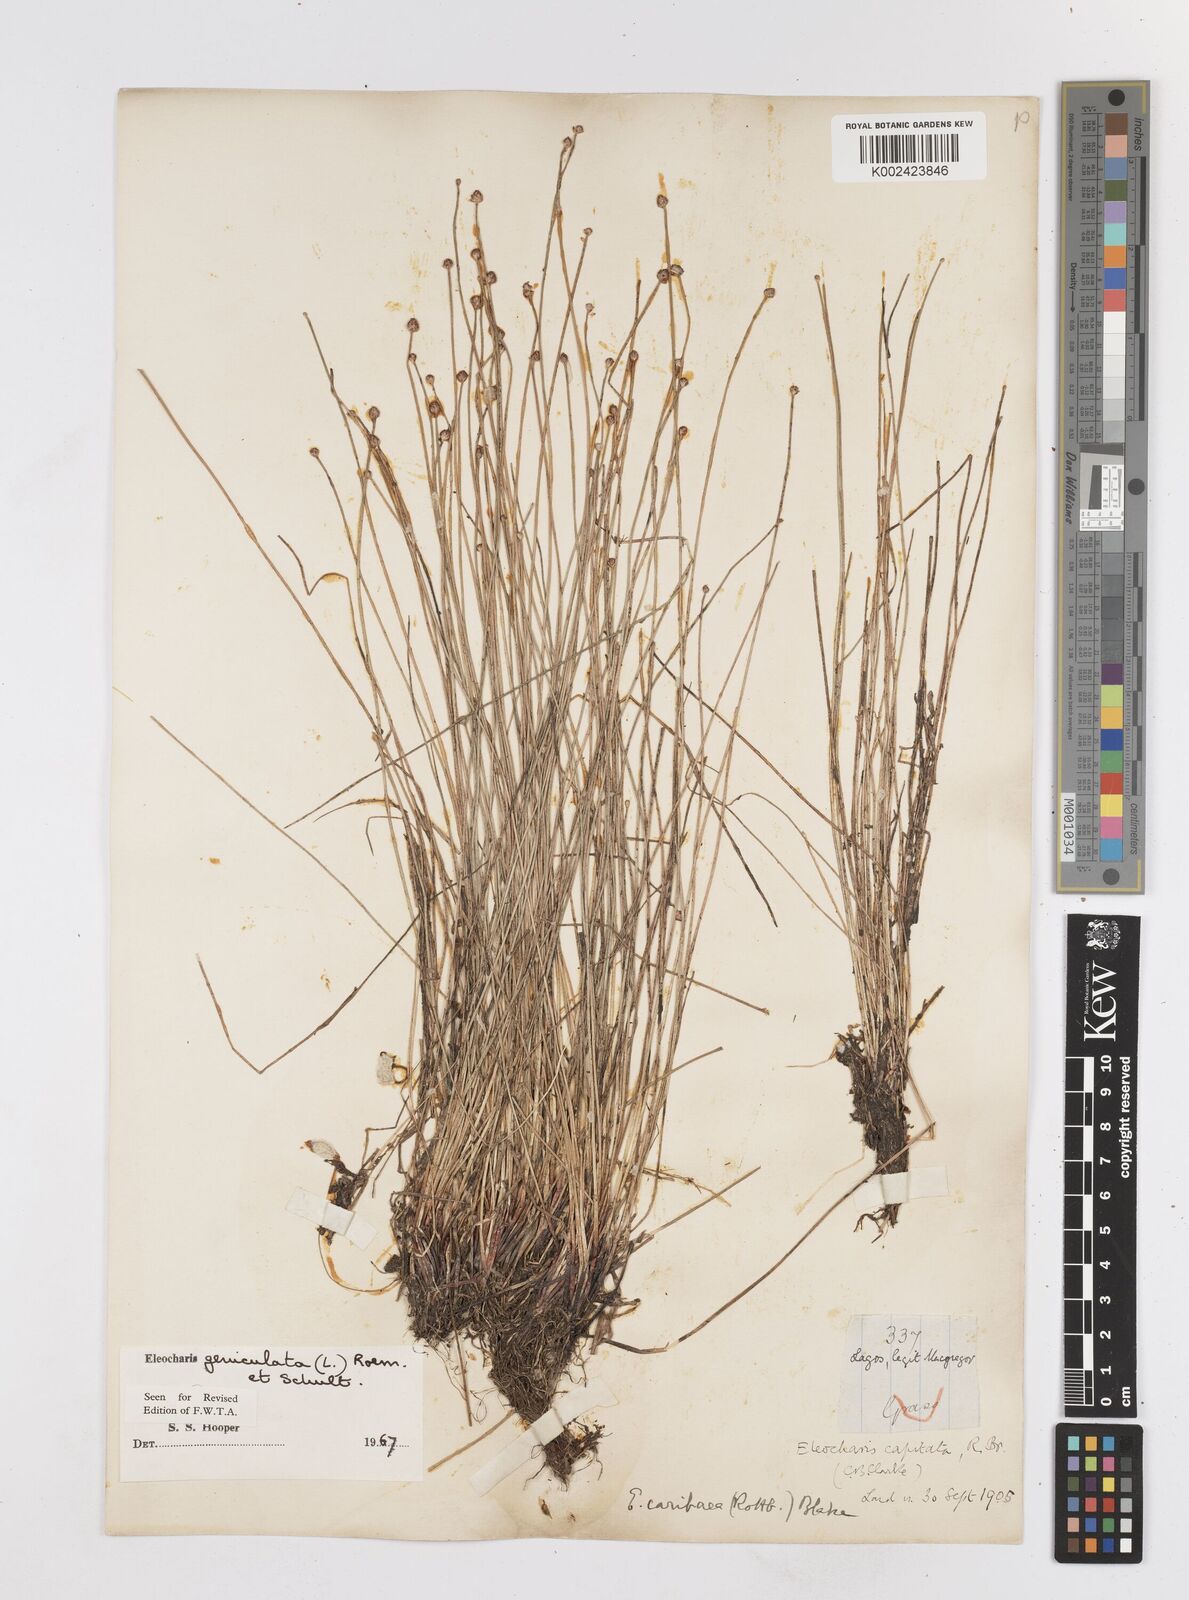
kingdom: Plantae
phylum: Tracheophyta
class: Liliopsida
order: Poales
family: Cyperaceae
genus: Eleocharis
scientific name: Eleocharis geniculata
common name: Canada spikesedge
